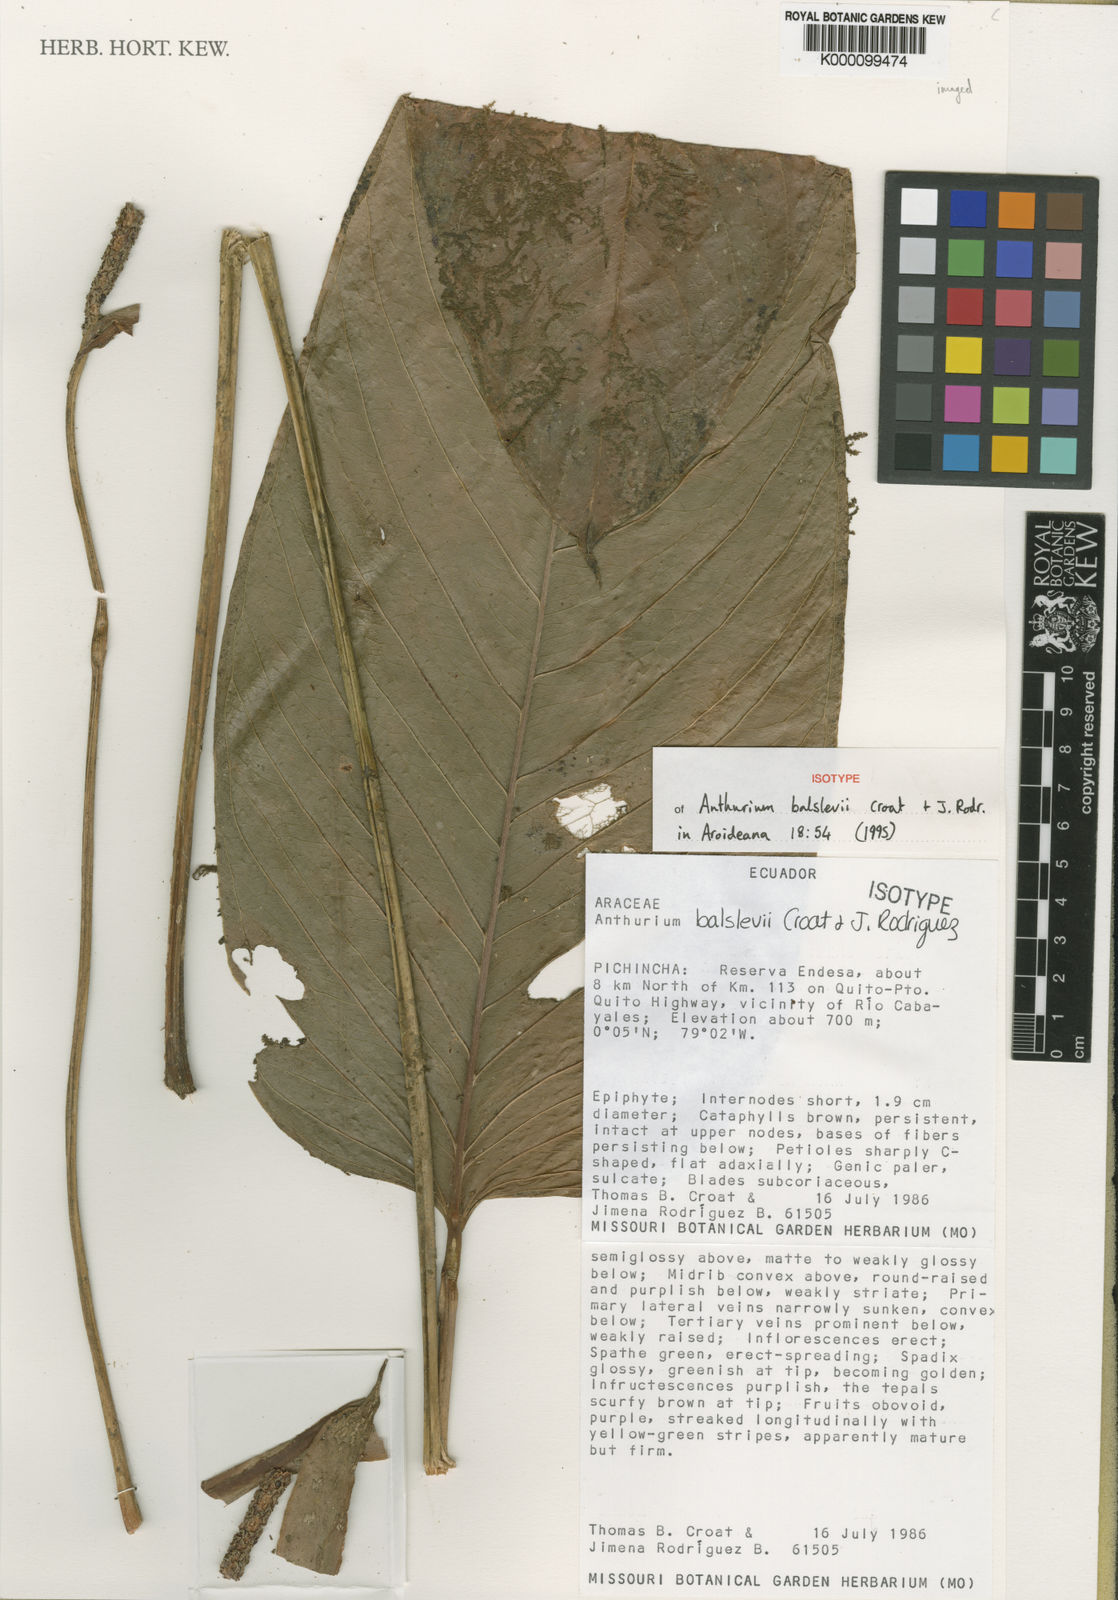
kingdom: Plantae
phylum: Tracheophyta
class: Liliopsida
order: Alismatales
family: Araceae
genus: Anthurium
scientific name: Anthurium balslevii
